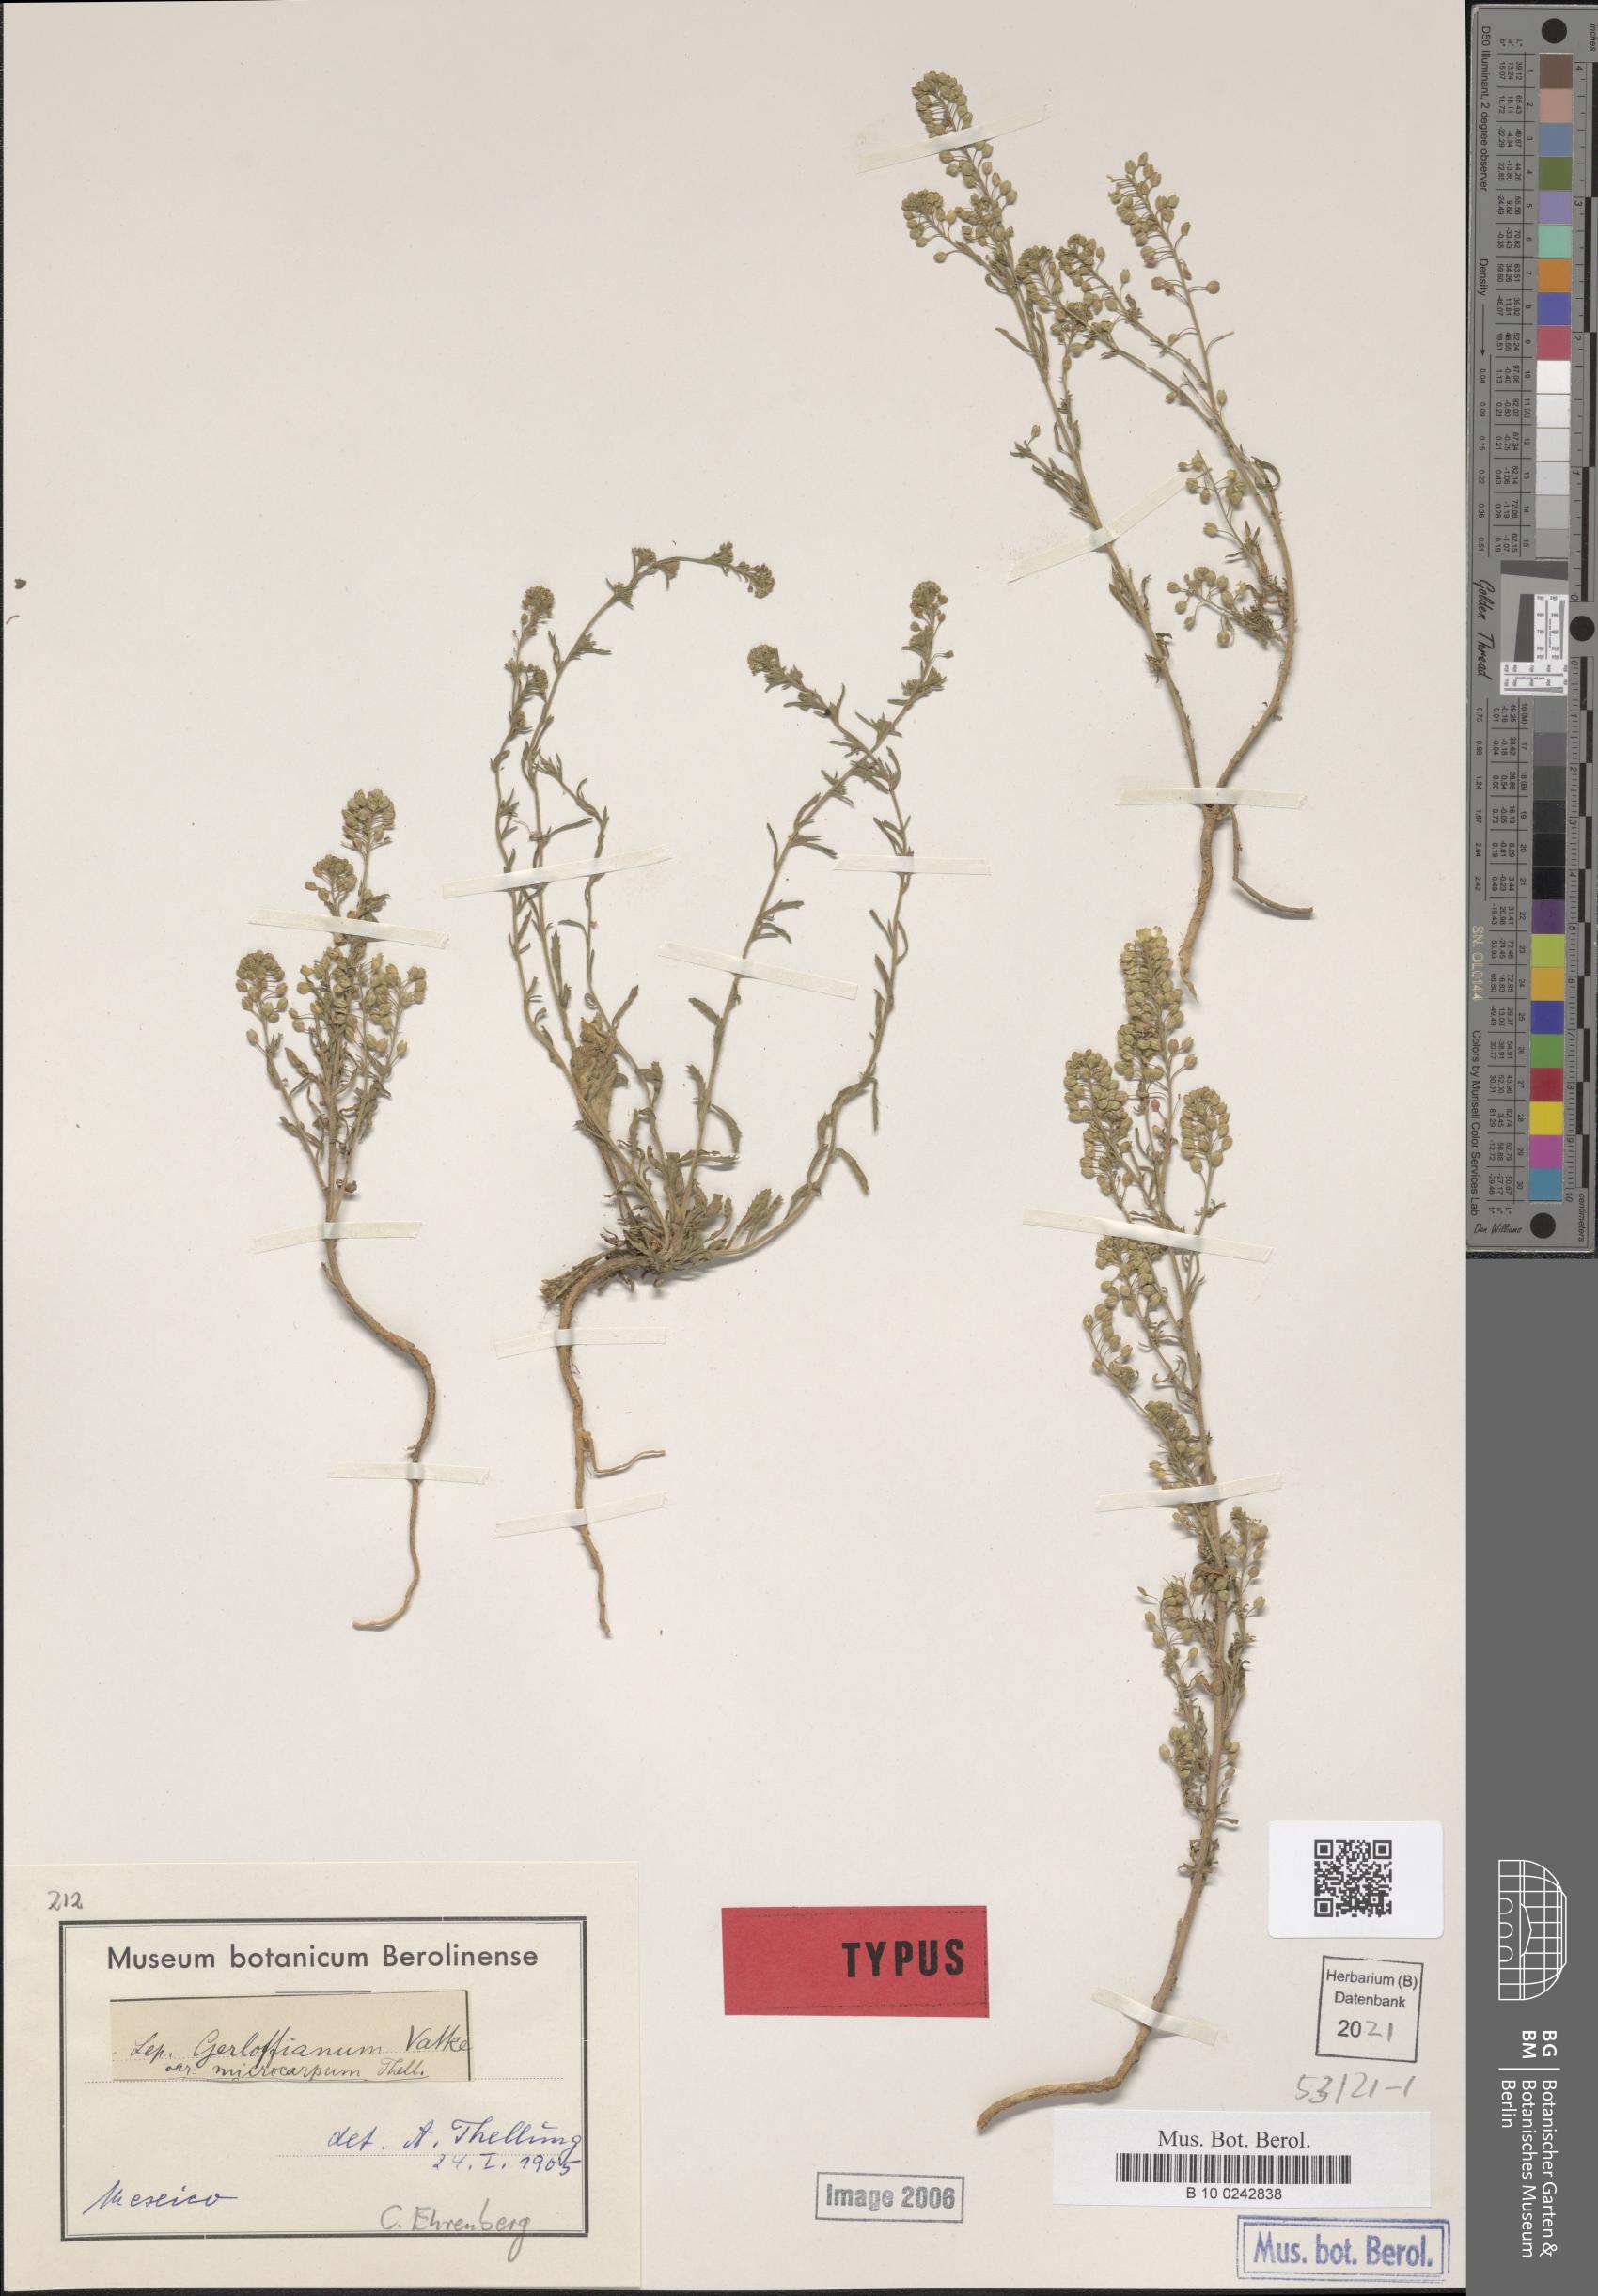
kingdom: Plantae
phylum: Tracheophyta
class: Magnoliopsida
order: Brassicales
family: Brassicaceae
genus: Lepidium
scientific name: Lepidium virginicum
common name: Least pepperwort
